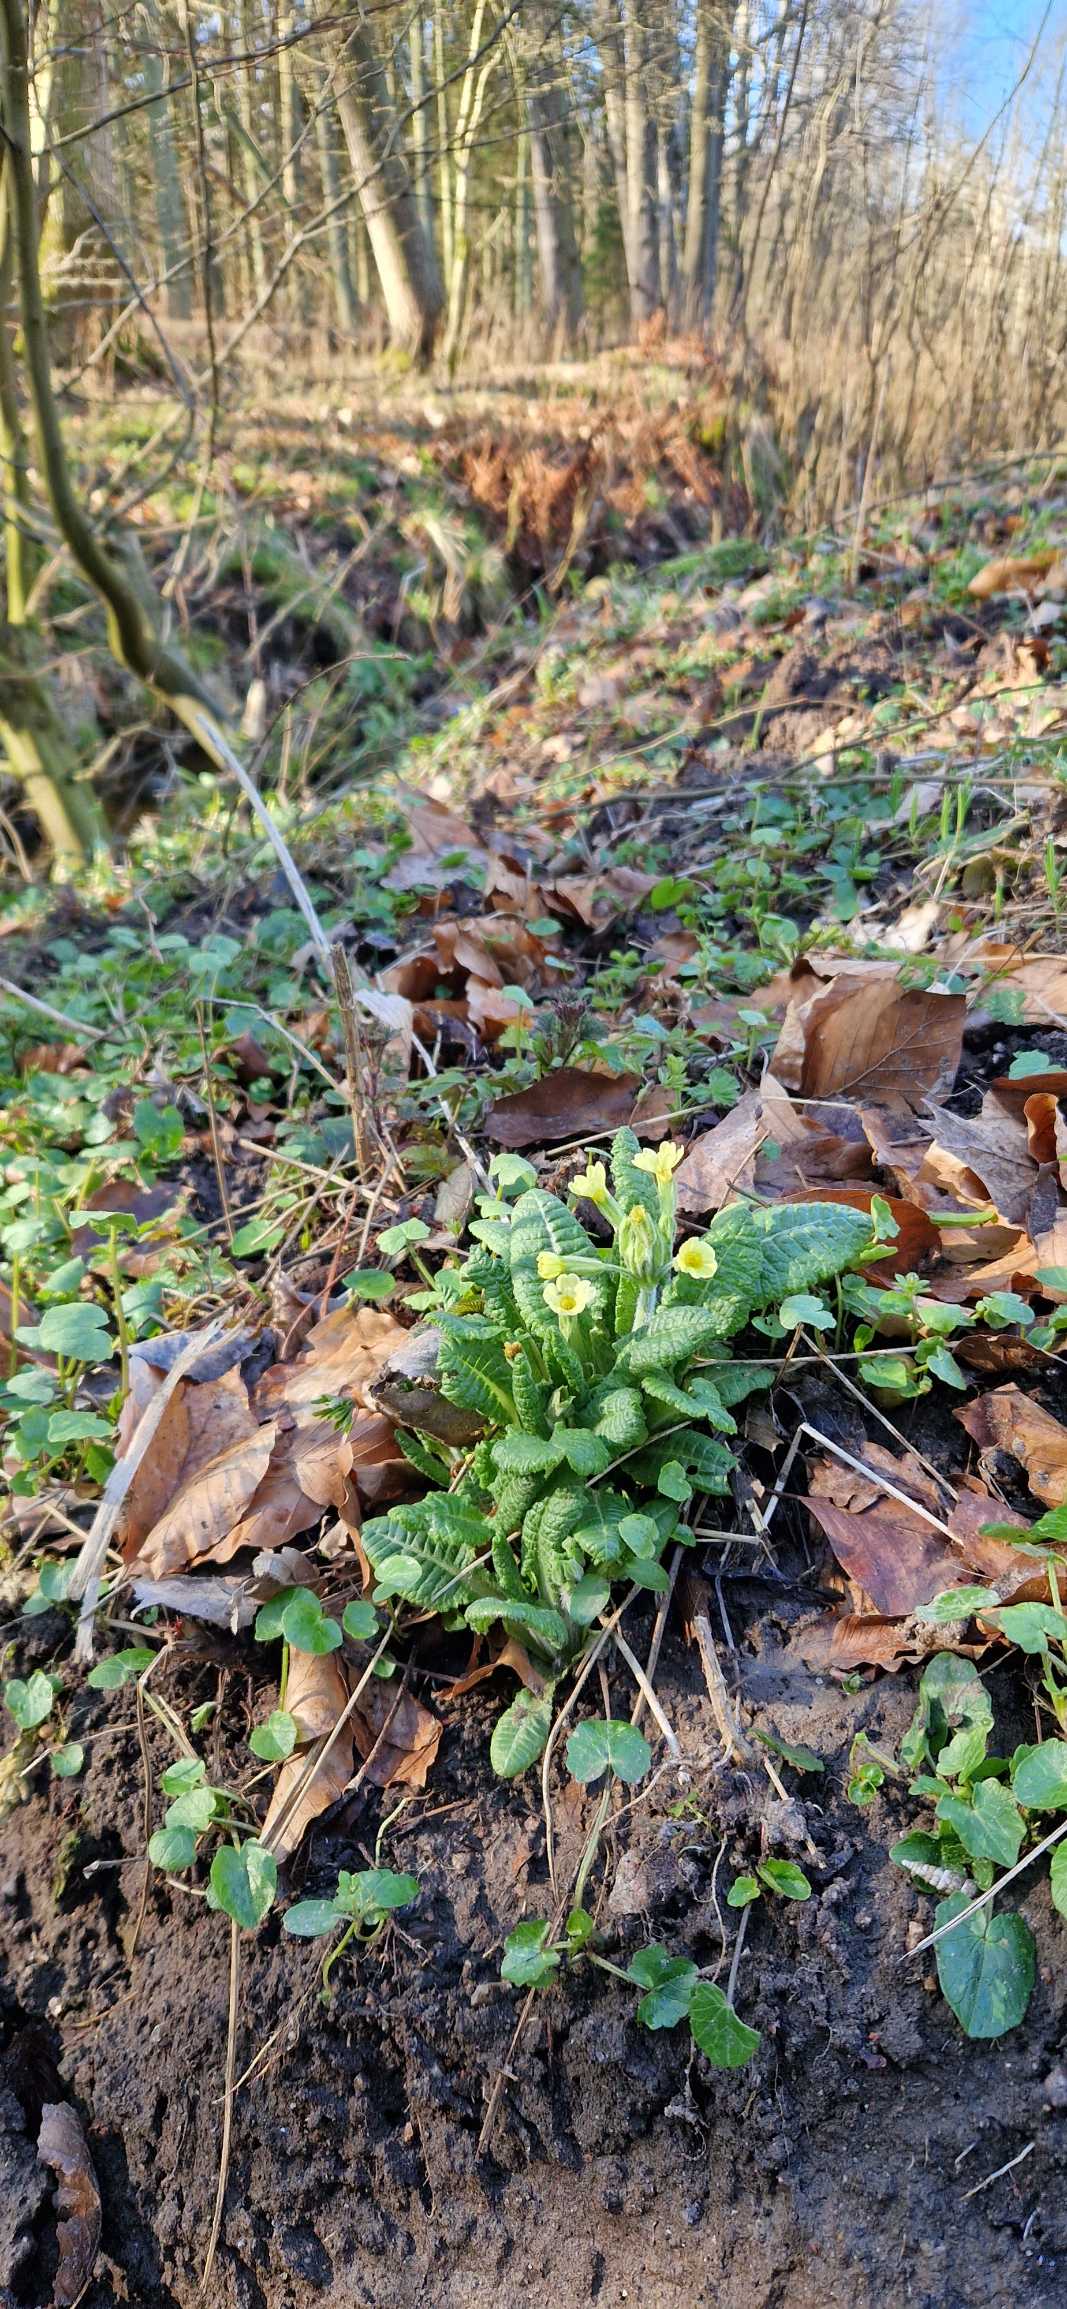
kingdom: Plantae
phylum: Tracheophyta
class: Magnoliopsida
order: Ericales
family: Primulaceae
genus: Primula
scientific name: Primula elatior
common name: Fladkravet kodriver
